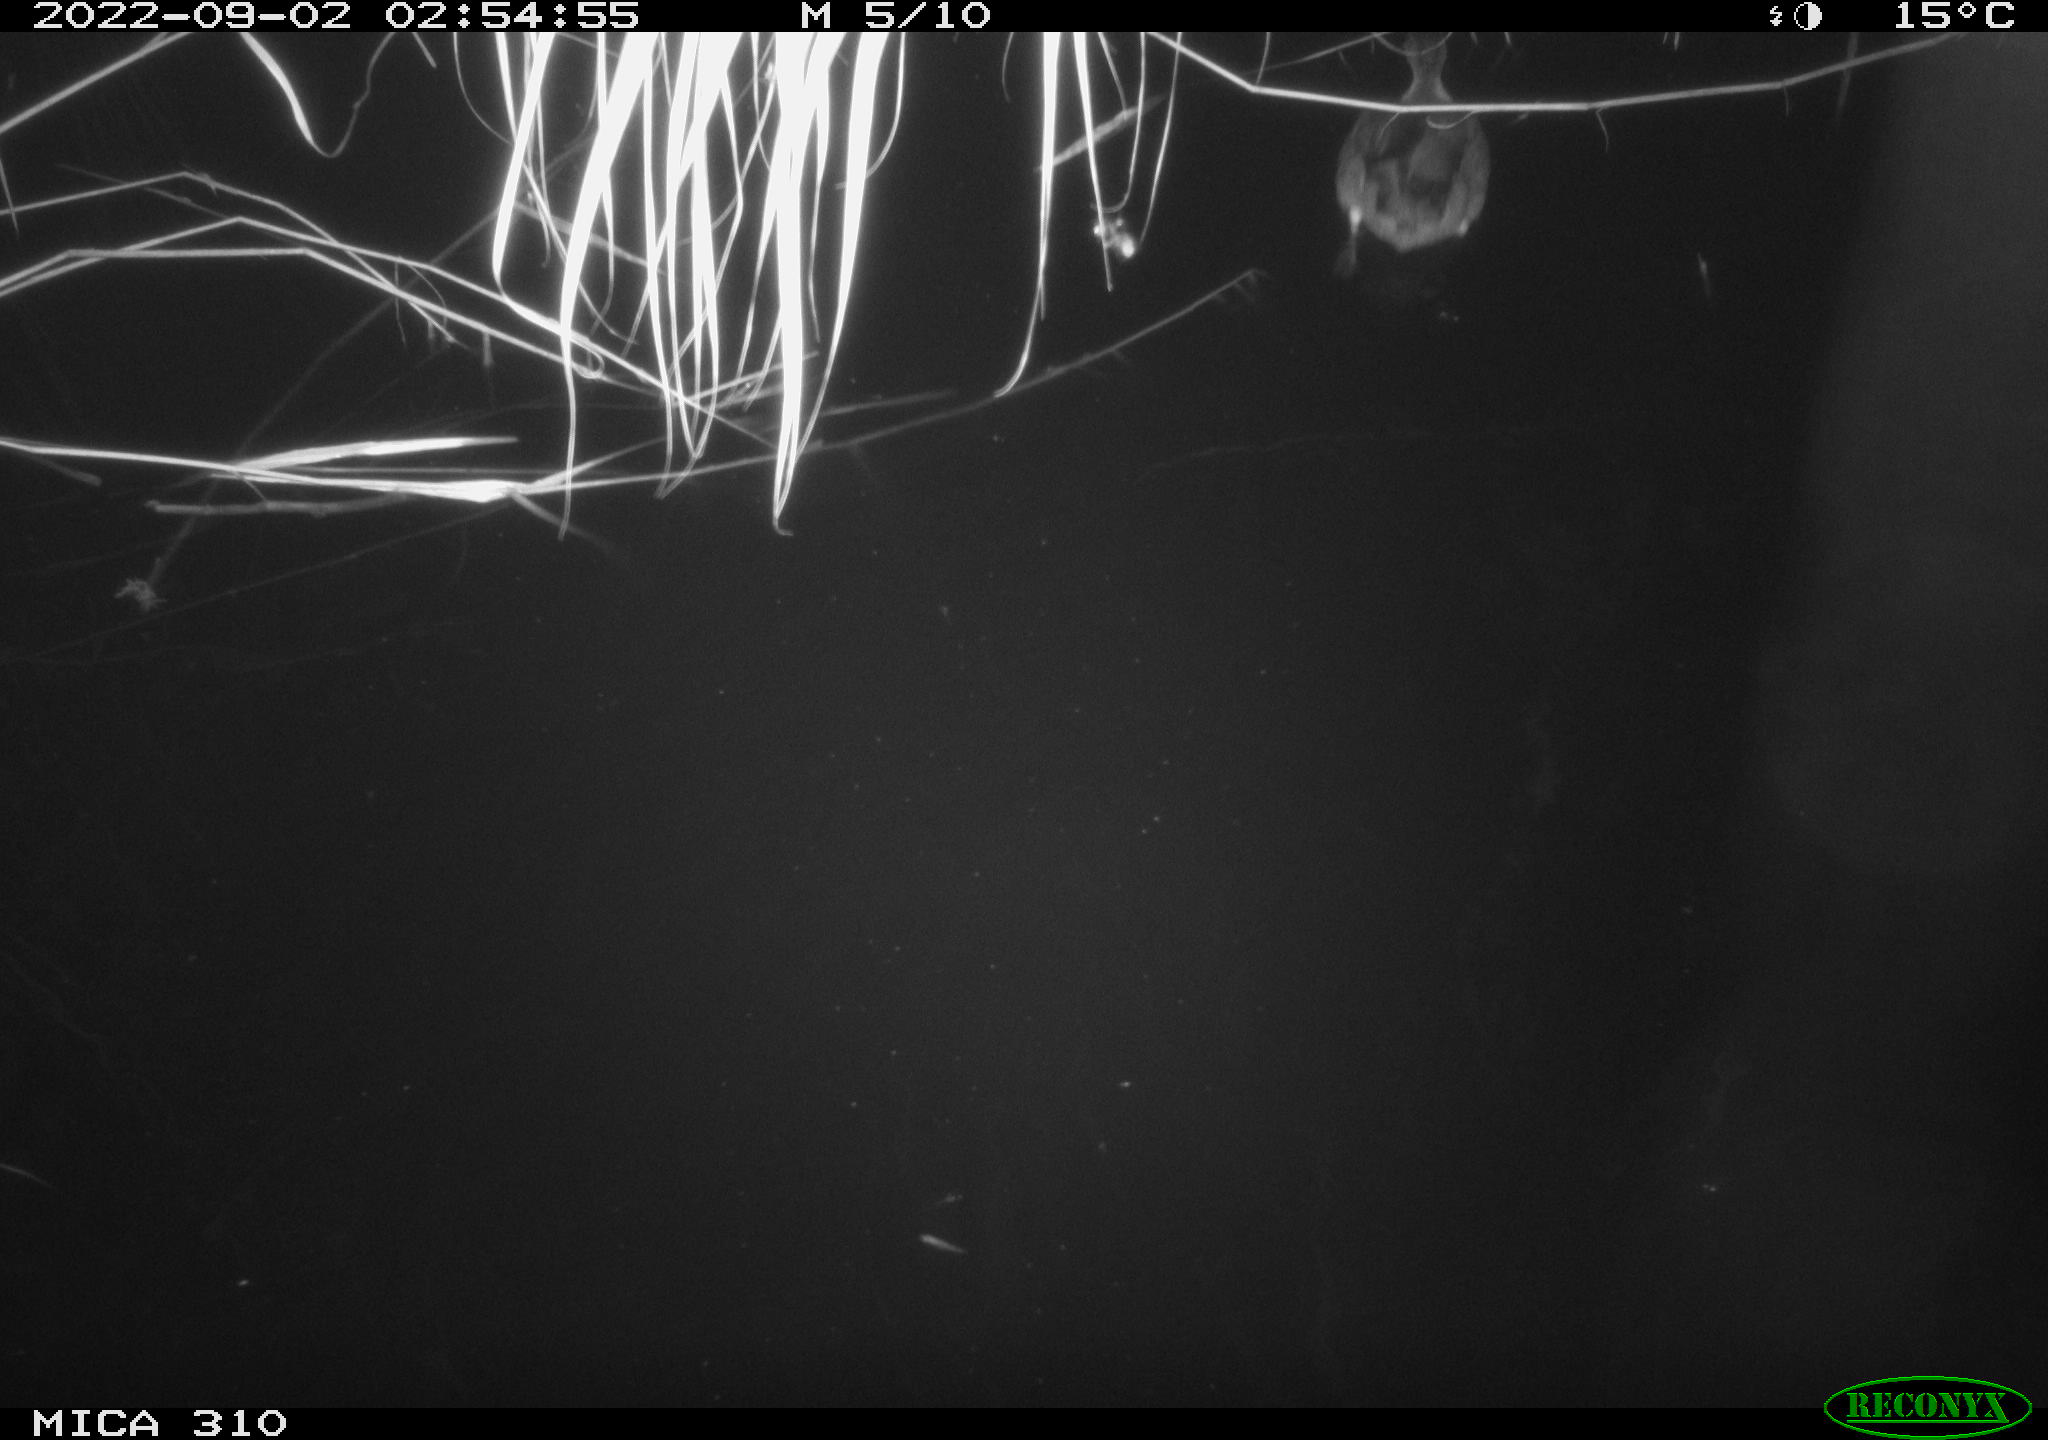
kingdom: Animalia
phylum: Chordata
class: Aves
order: Anseriformes
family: Anatidae
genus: Anas
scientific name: Anas platyrhynchos
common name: Mallard
